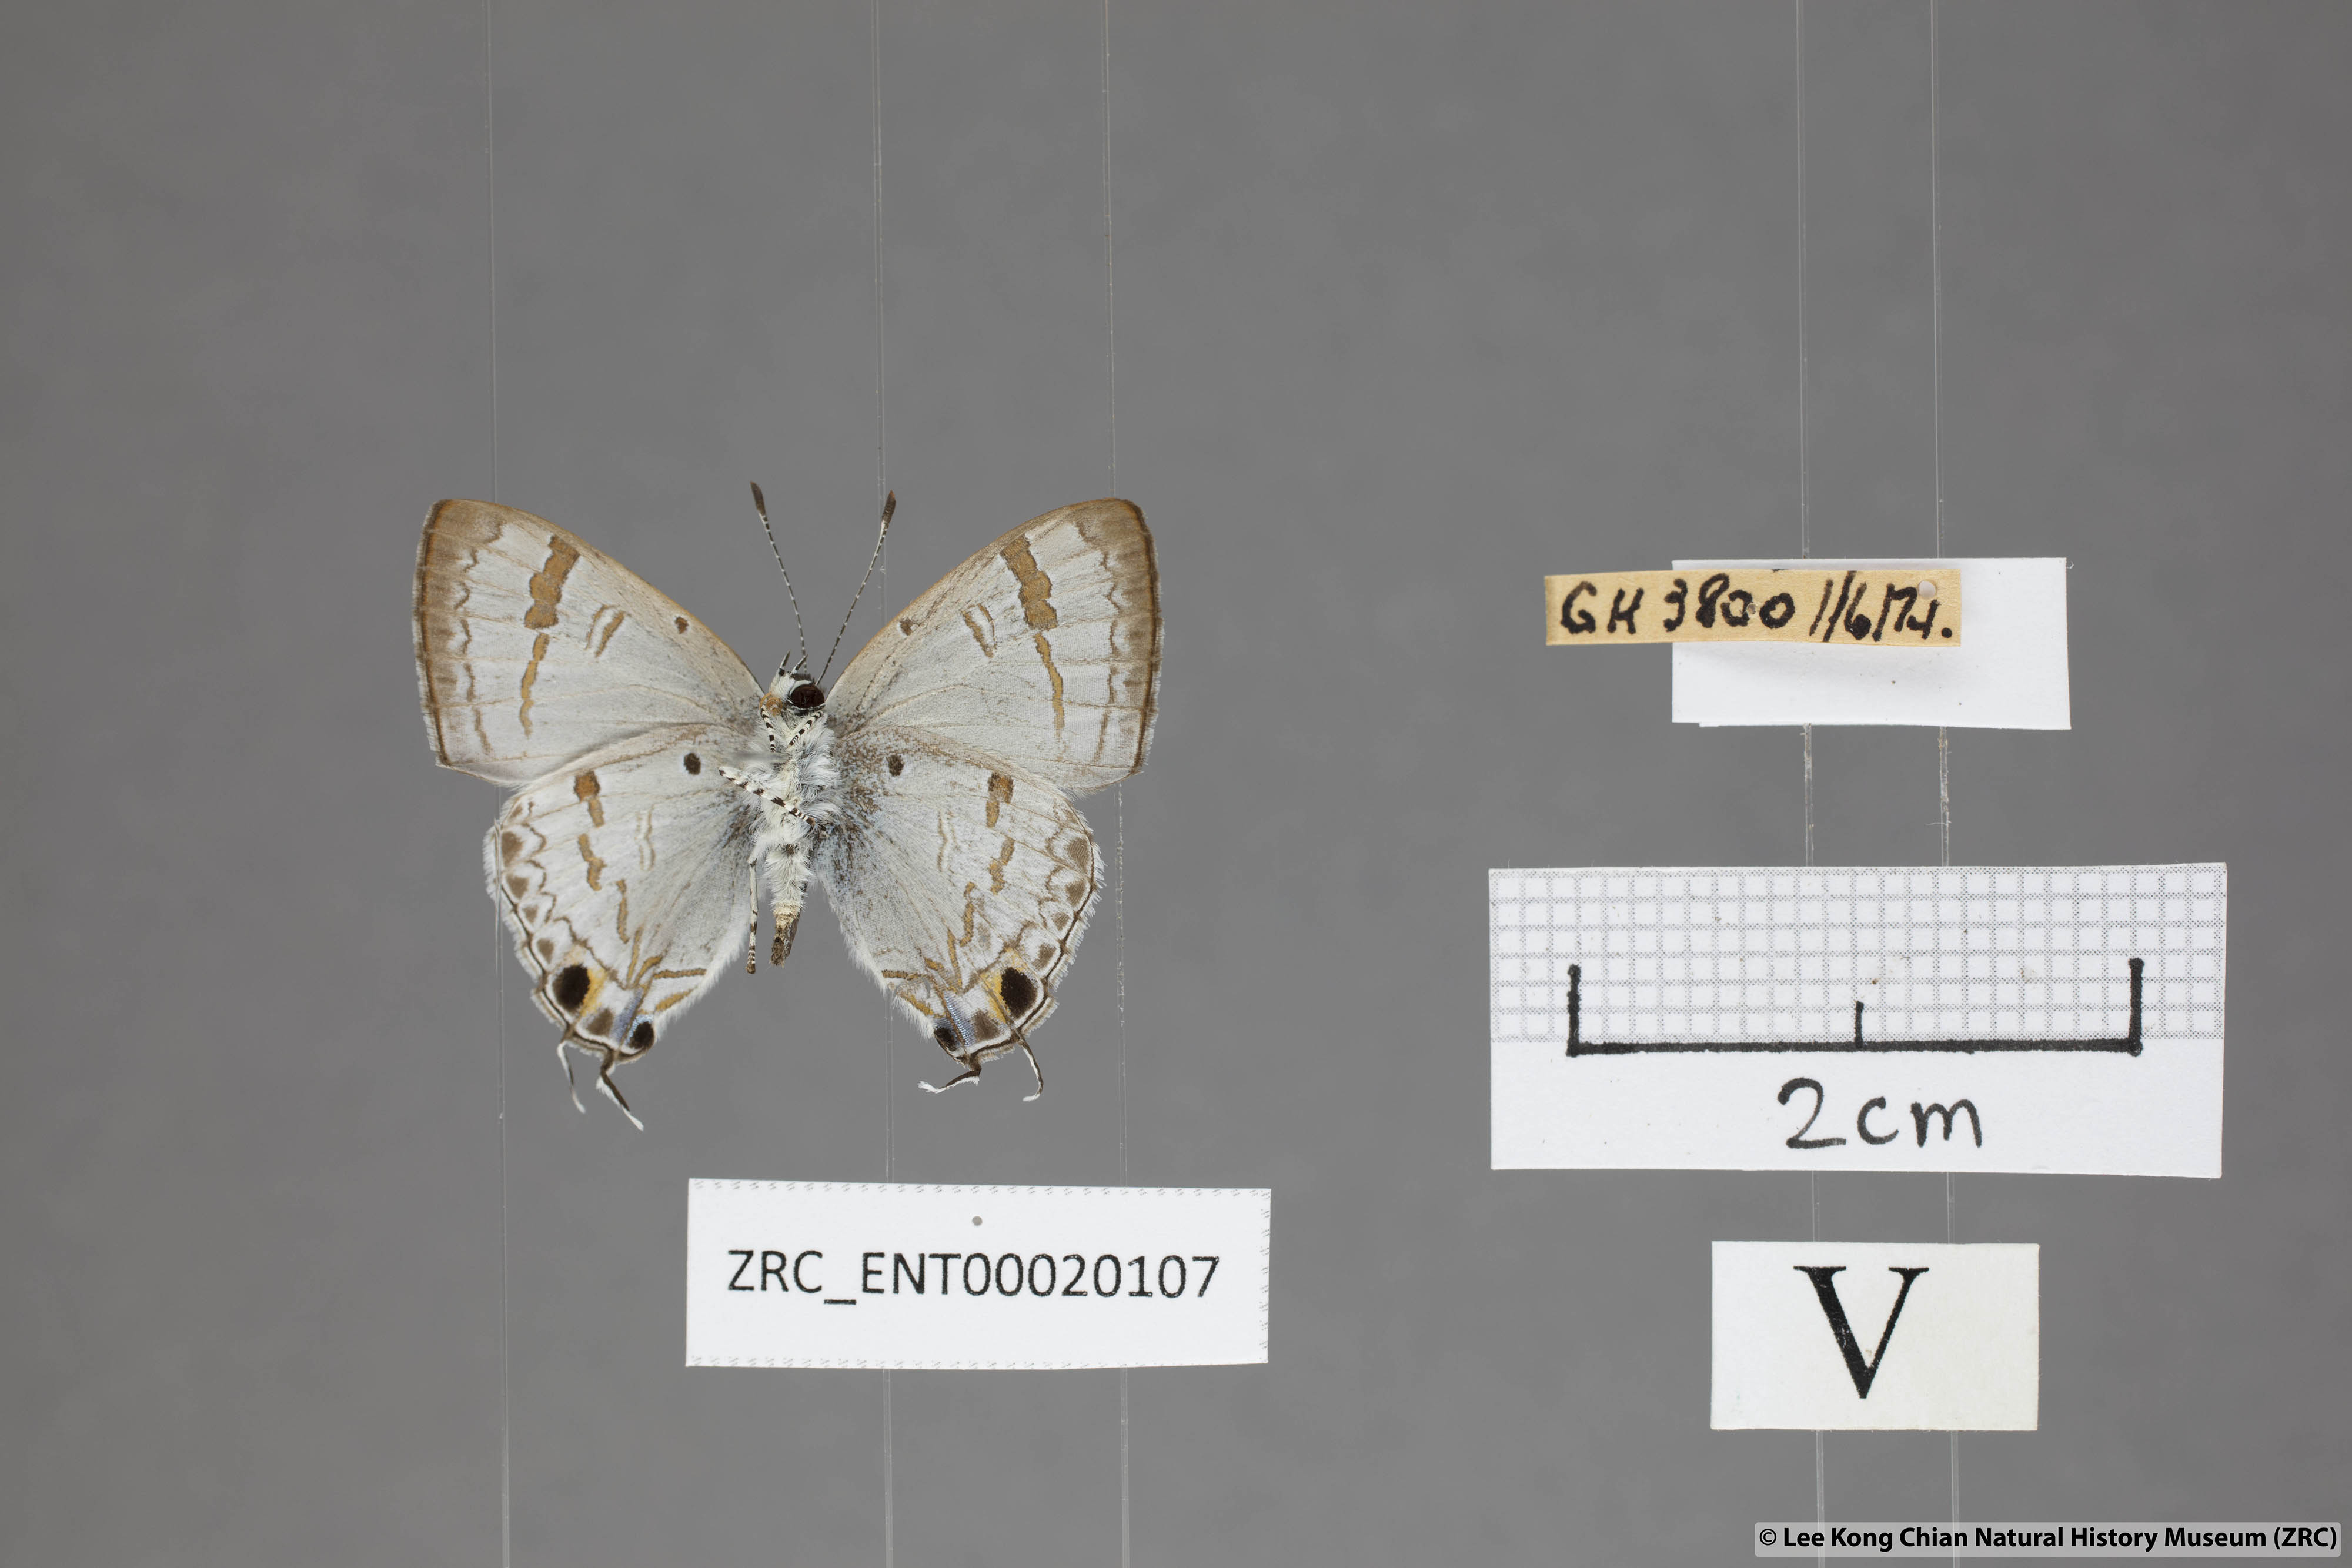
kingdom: Animalia
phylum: Arthropoda
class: Insecta
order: Lepidoptera
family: Lycaenidae
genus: Chliaria
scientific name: Chliaria pahanga
